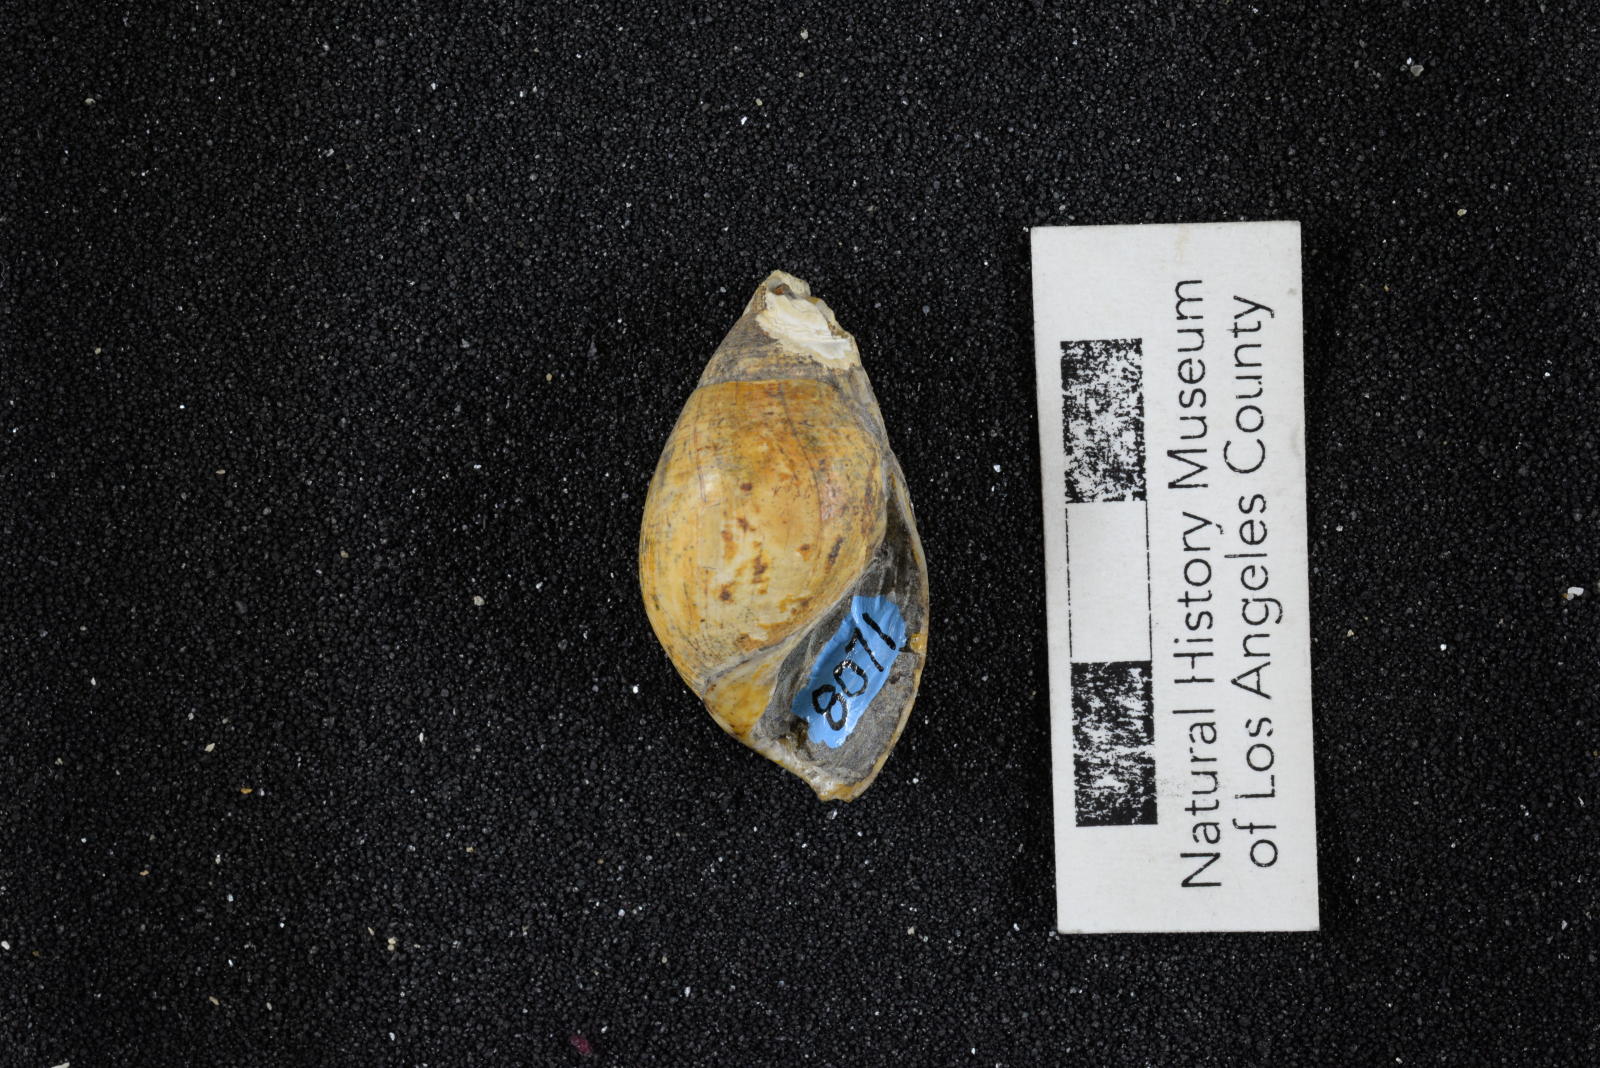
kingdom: Animalia
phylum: Mollusca
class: Gastropoda
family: Pseudomelaniidae
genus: Paosia
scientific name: Paosia Acteonina californica
